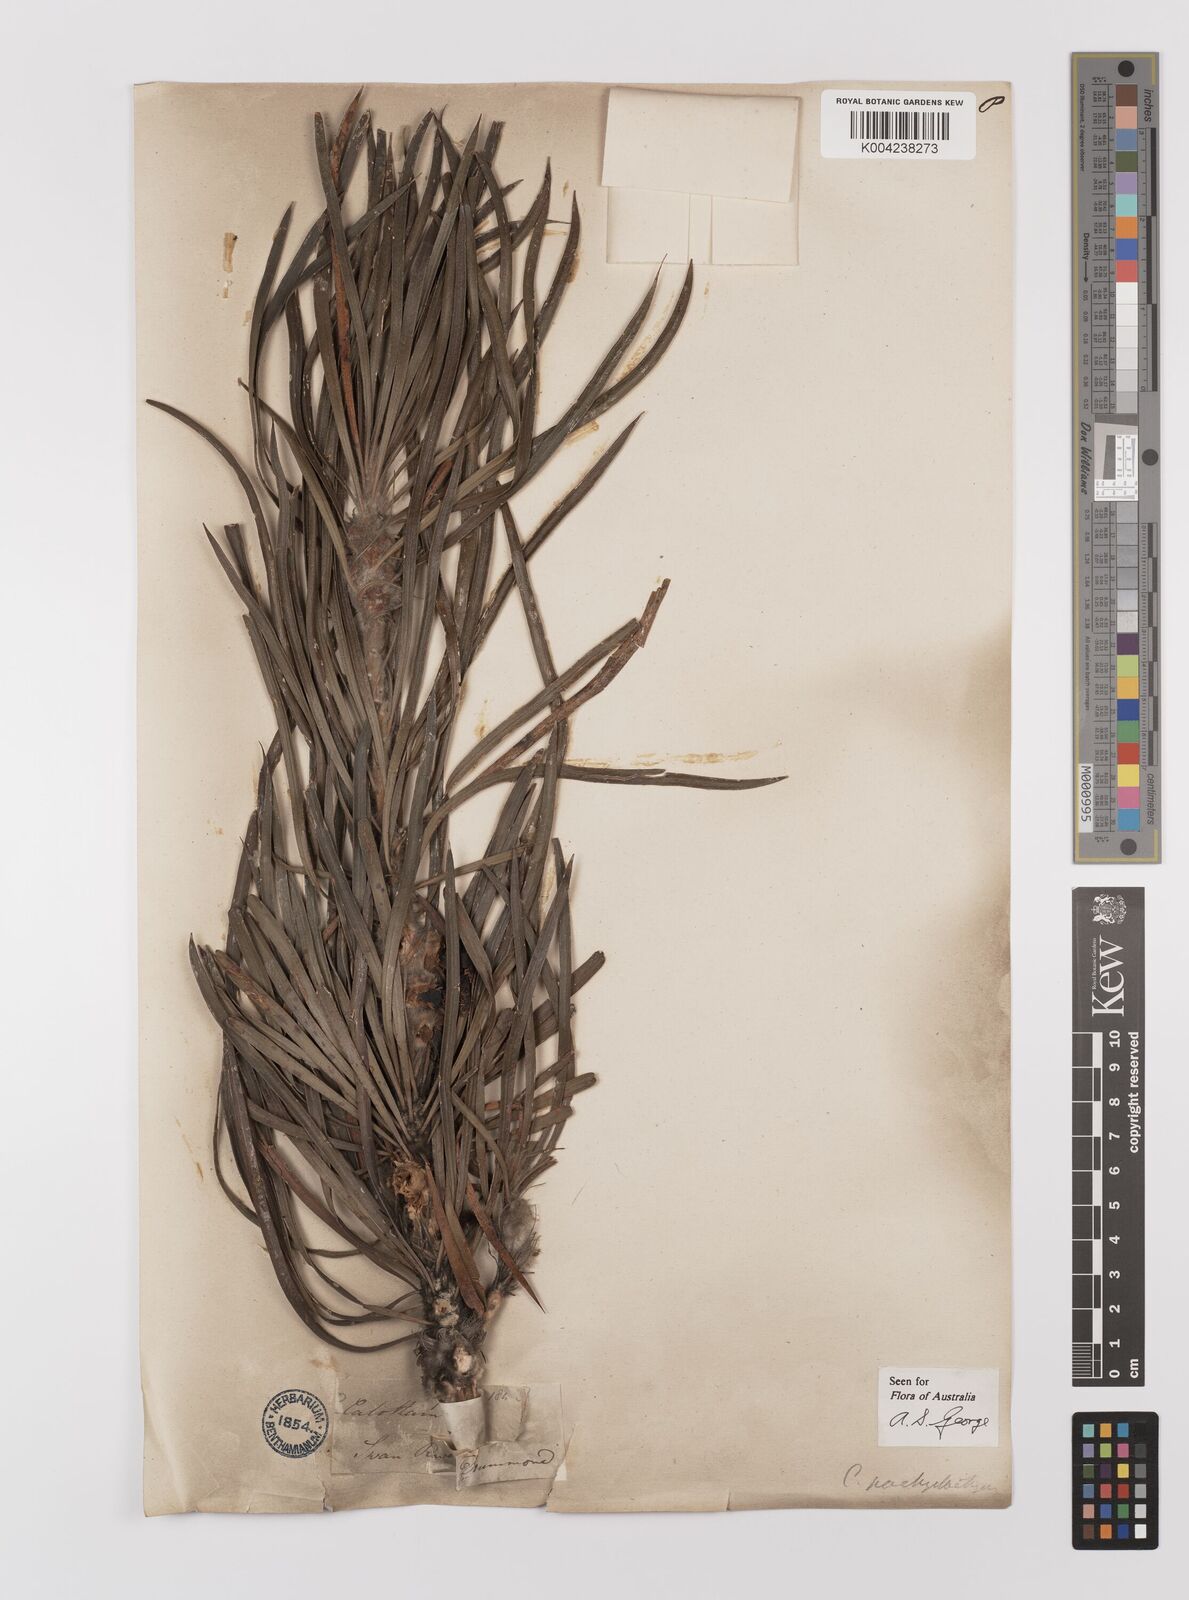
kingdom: Plantae
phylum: Tracheophyta
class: Magnoliopsida
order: Myrtales
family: Myrtaceae
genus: Melaleuca
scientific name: Melaleuca pachystachya
